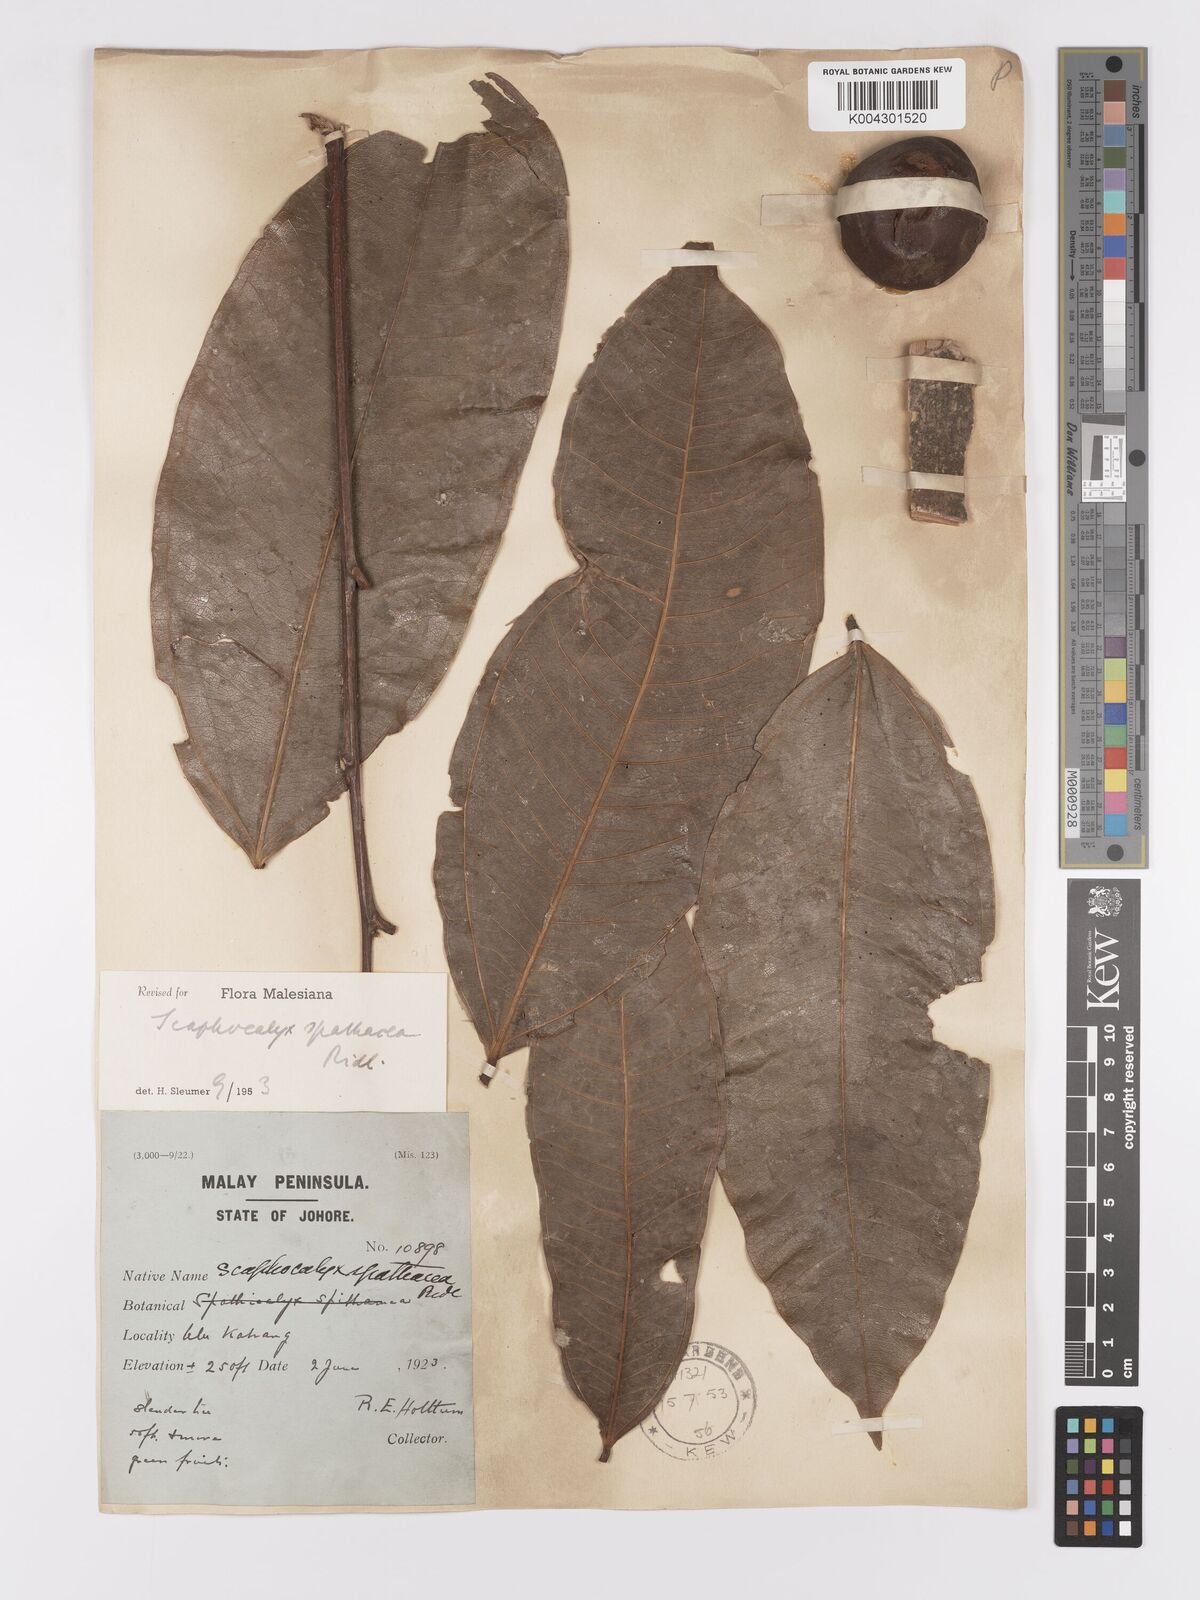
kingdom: Plantae
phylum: Tracheophyta
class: Magnoliopsida
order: Malpighiales
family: Achariaceae
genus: Scaphocalyx
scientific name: Scaphocalyx spathacea
